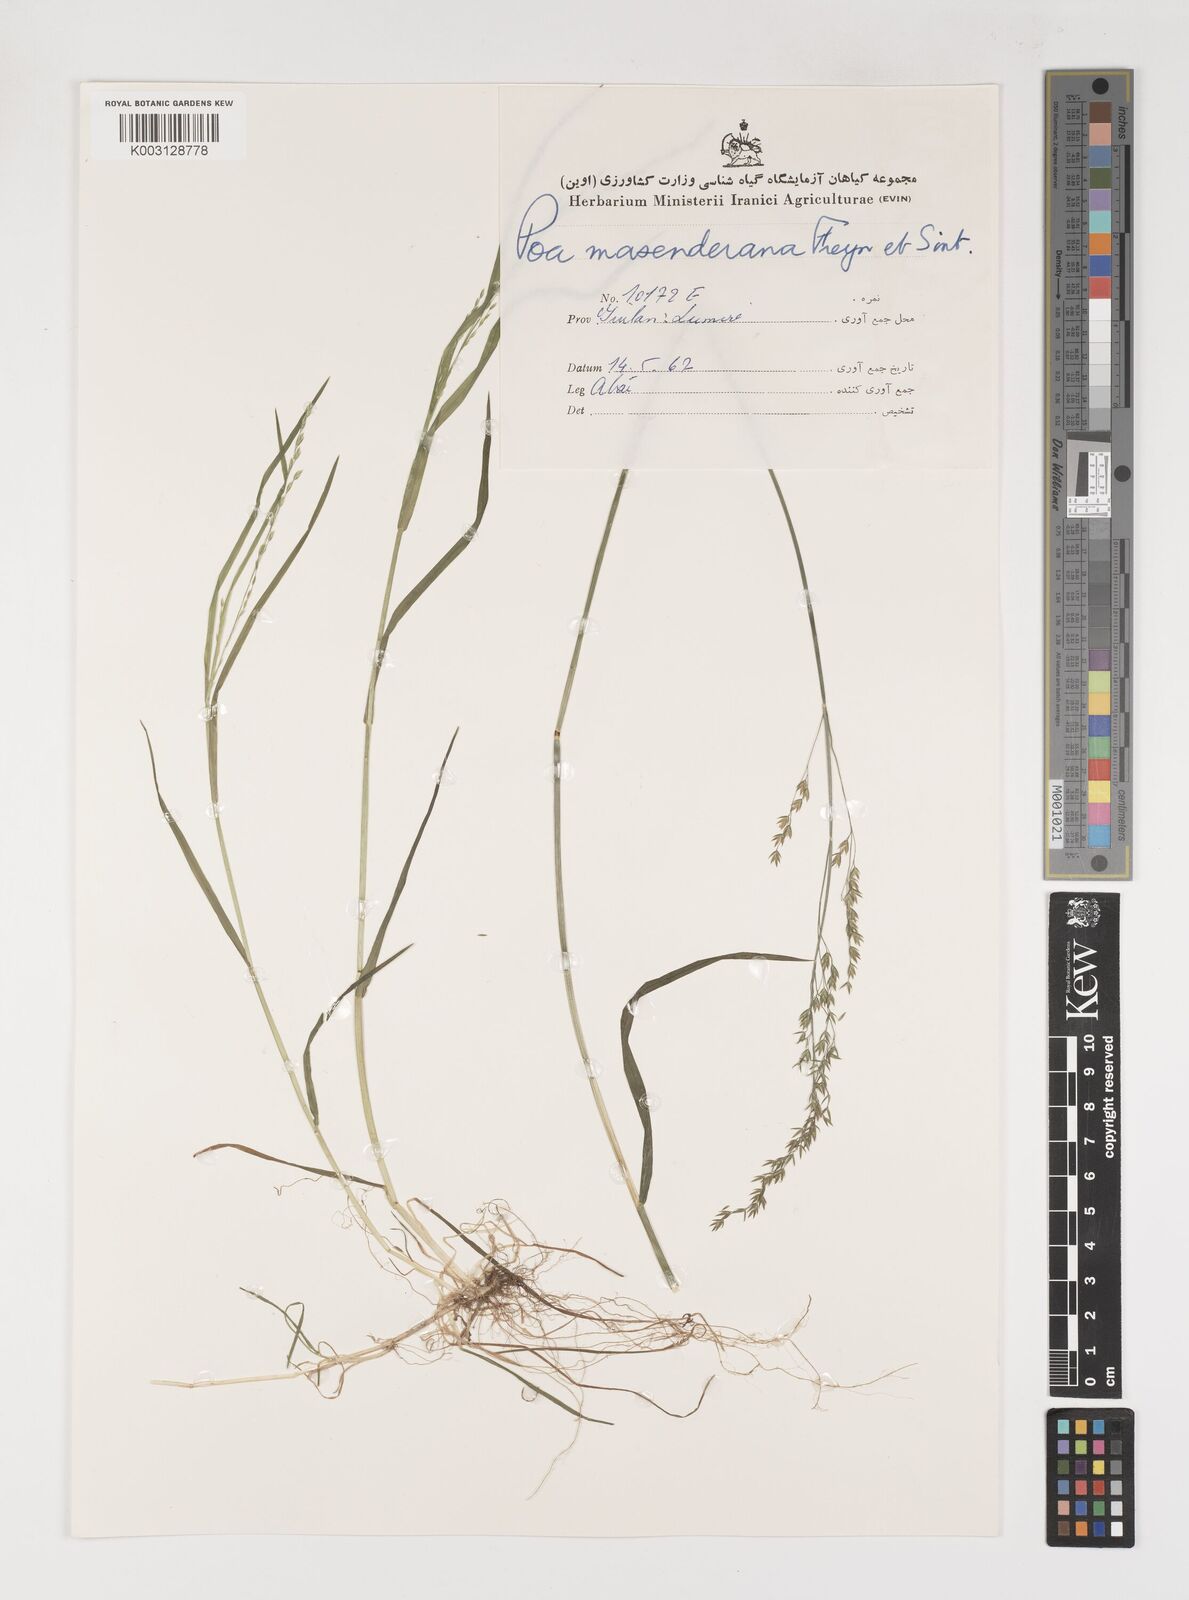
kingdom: Plantae
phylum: Tracheophyta
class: Liliopsida
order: Poales
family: Poaceae
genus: Poa
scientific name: Poa masenderana
